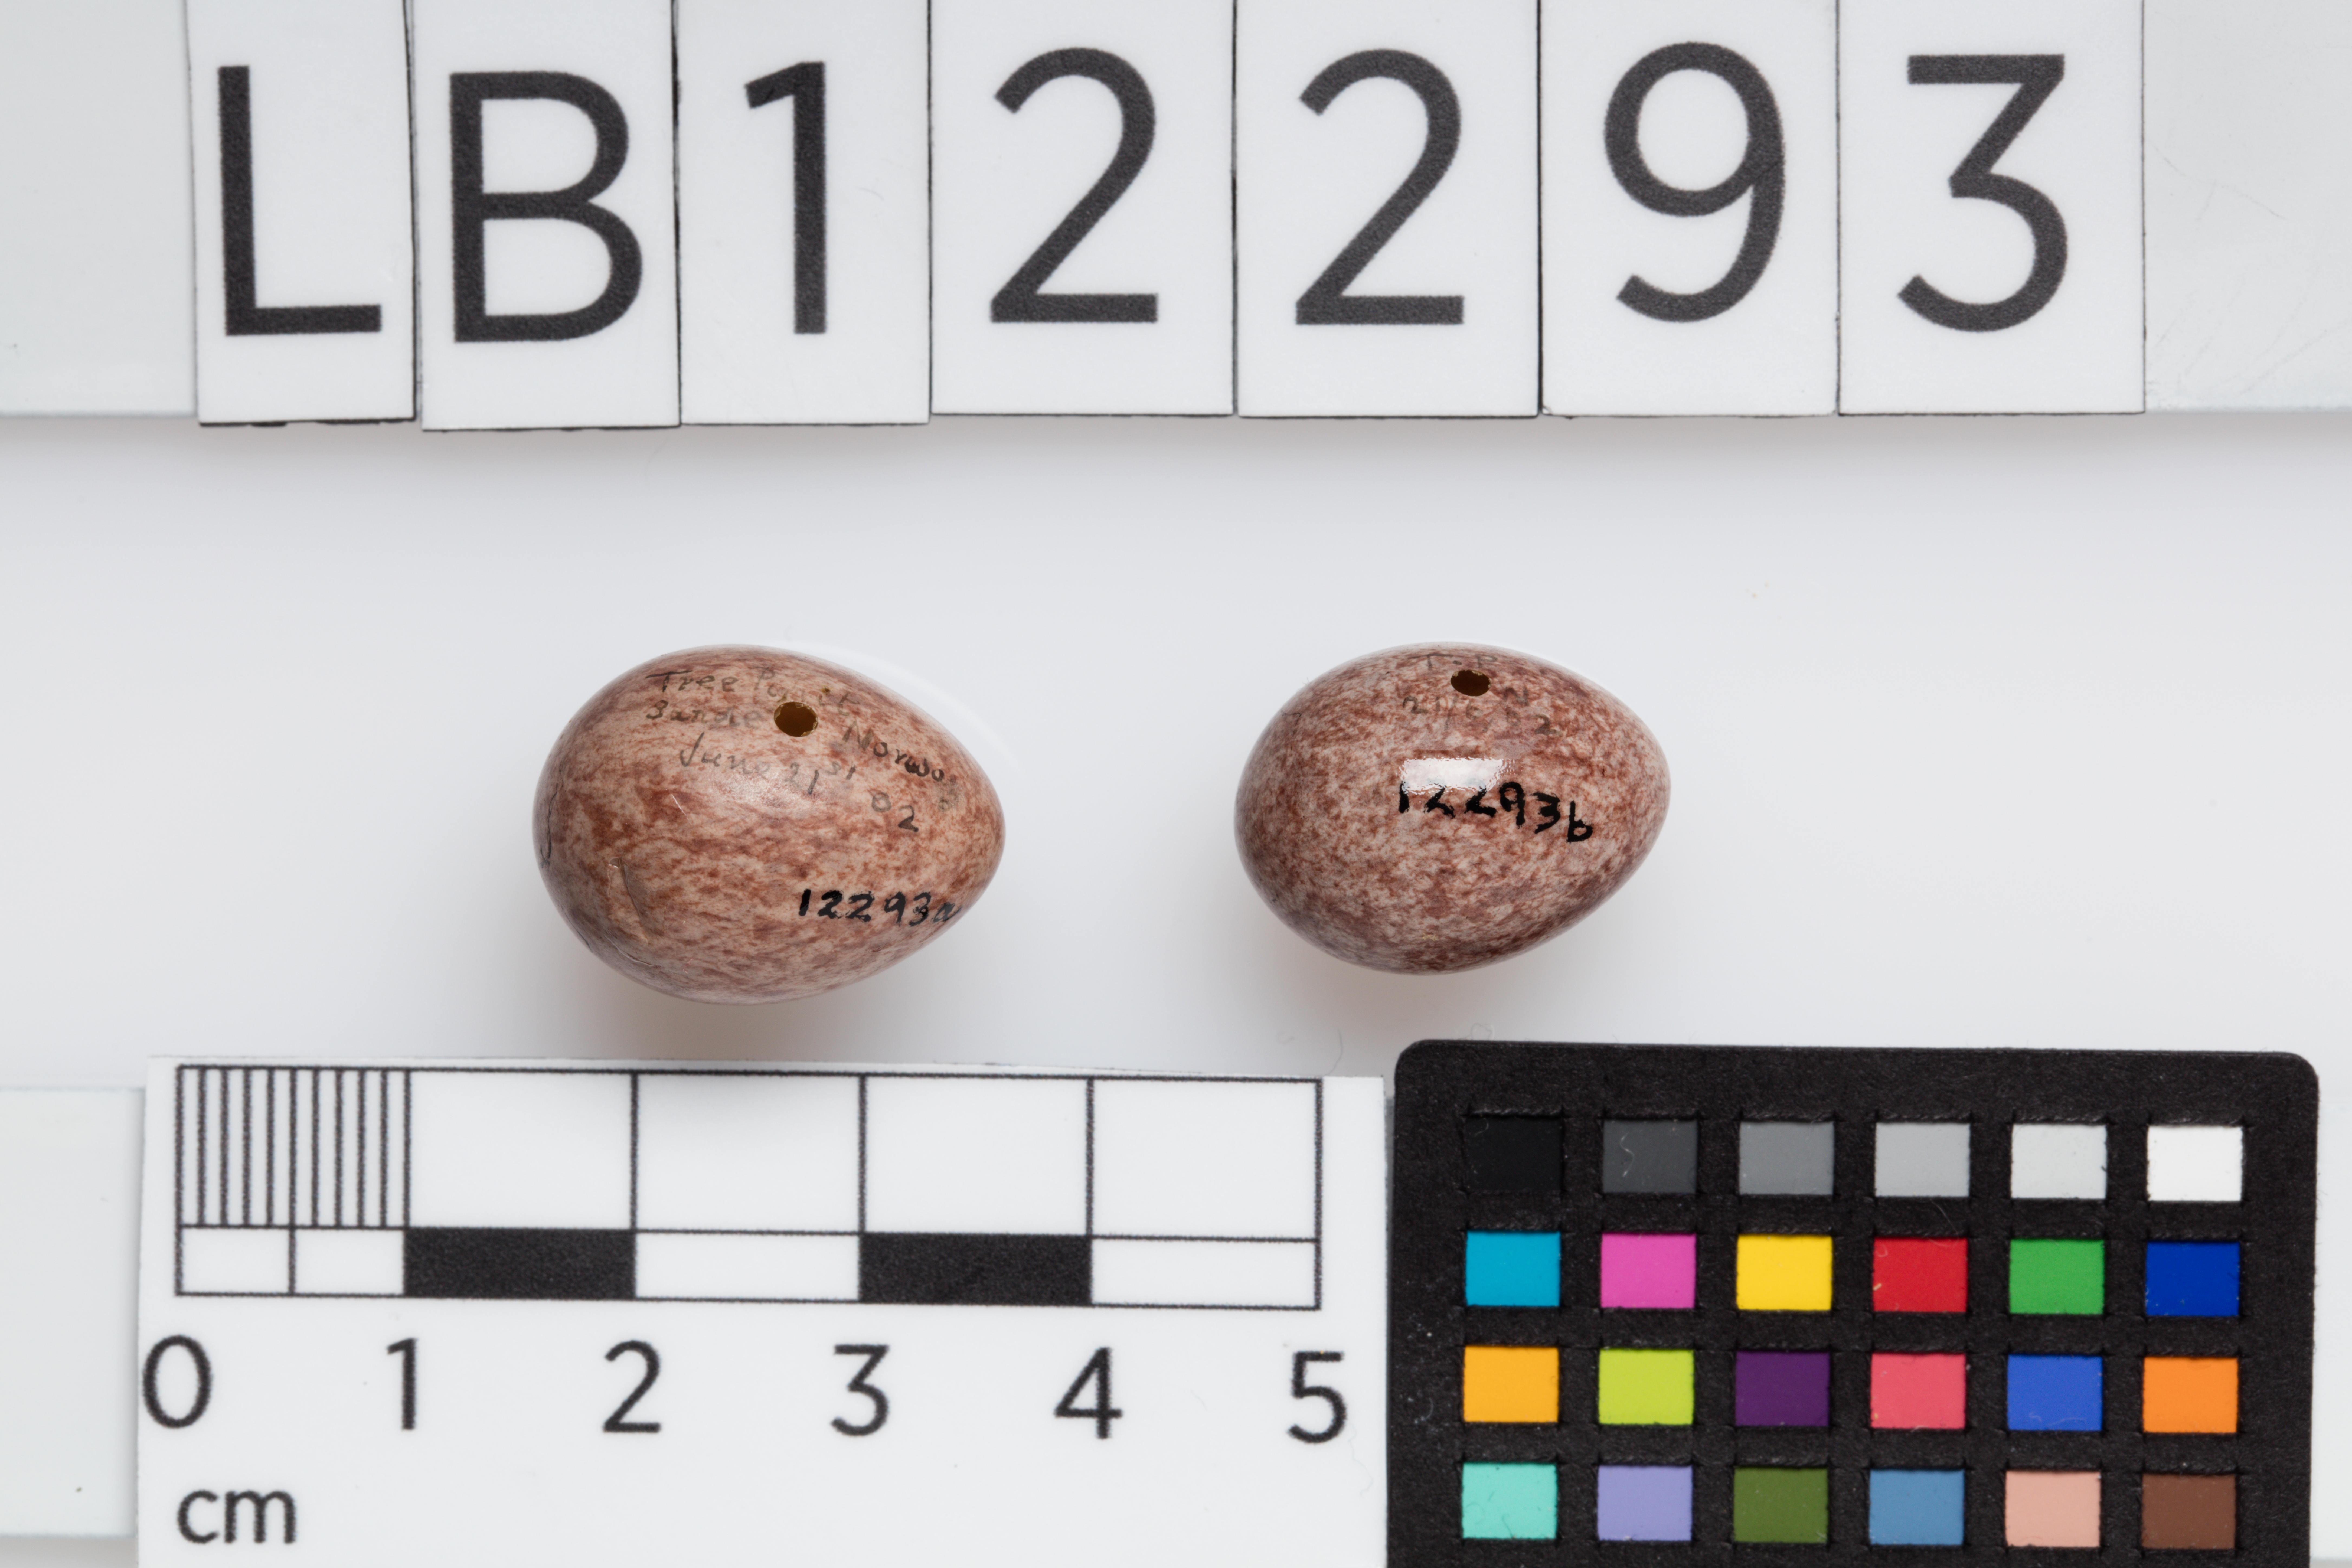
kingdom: Animalia
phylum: Chordata
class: Aves
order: Passeriformes
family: Motacillidae
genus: Anthus
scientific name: Anthus trivialis
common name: Tree pipit
